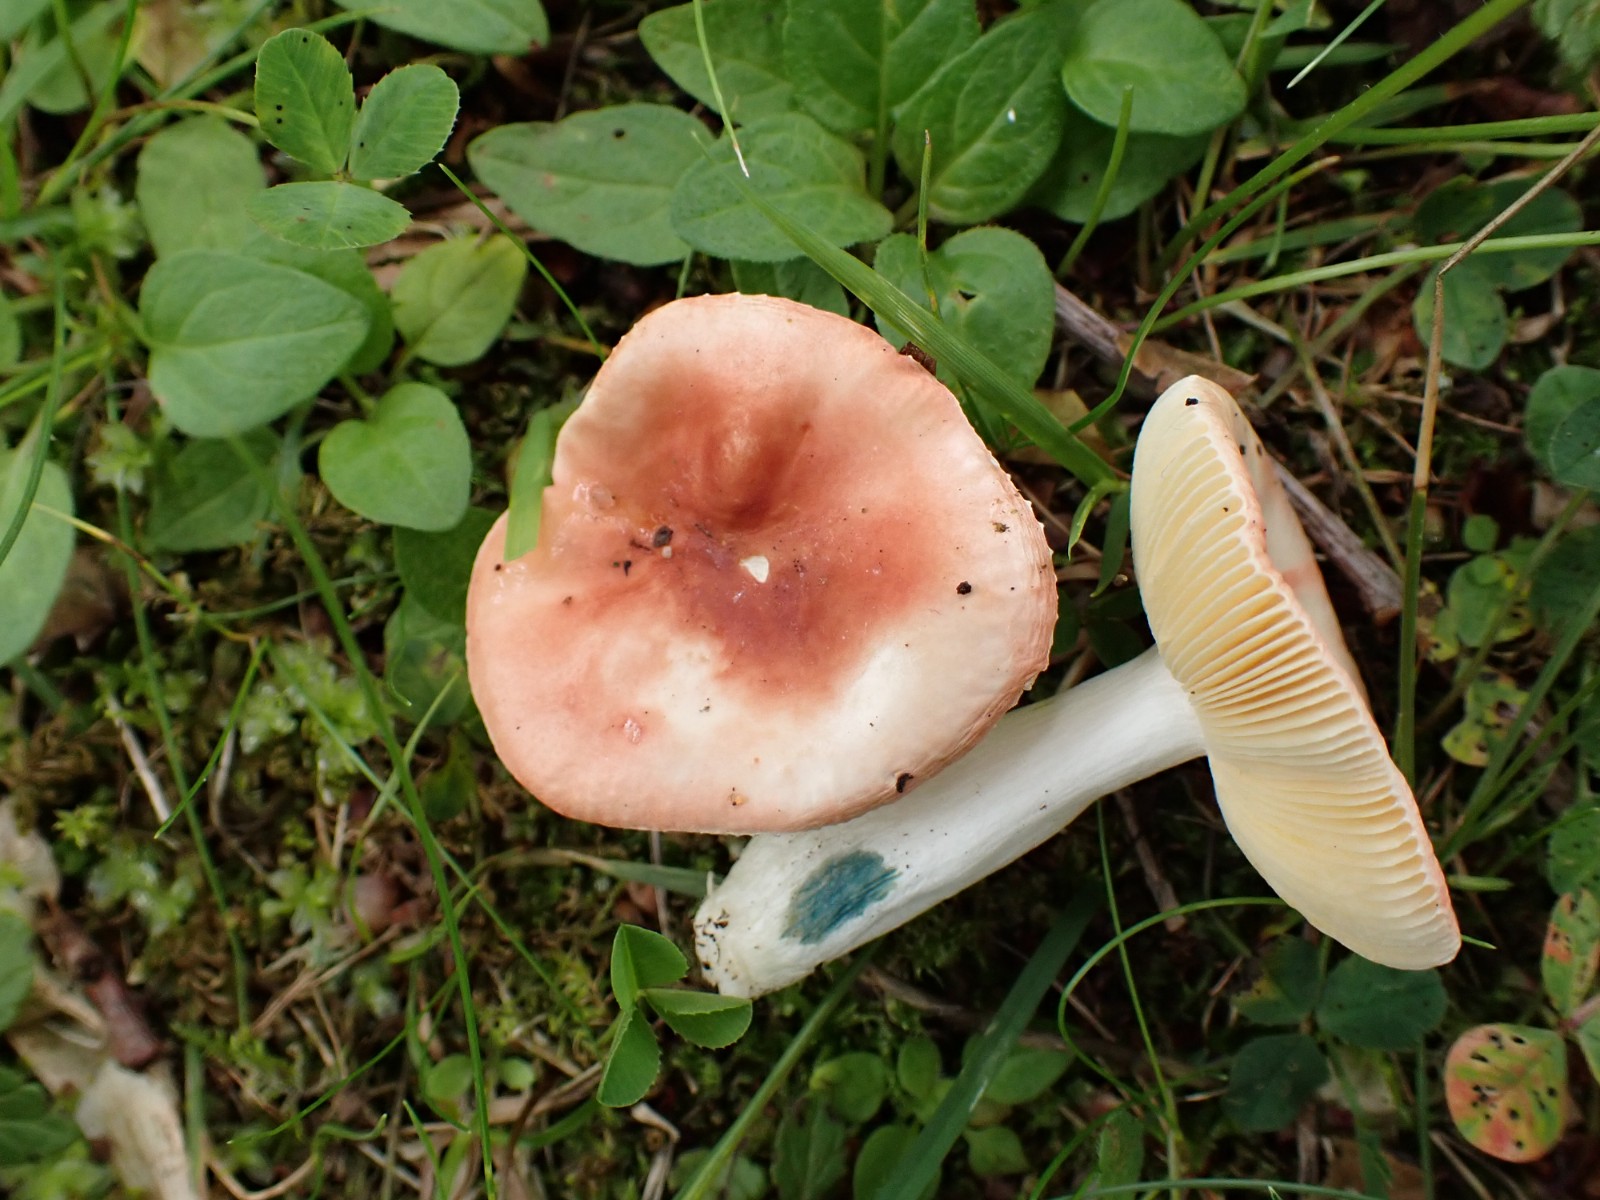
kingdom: Fungi
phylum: Basidiomycota
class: Agaricomycetes
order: Russulales
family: Russulaceae
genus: Russula
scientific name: Russula risigallina
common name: abrikos-skørhat
